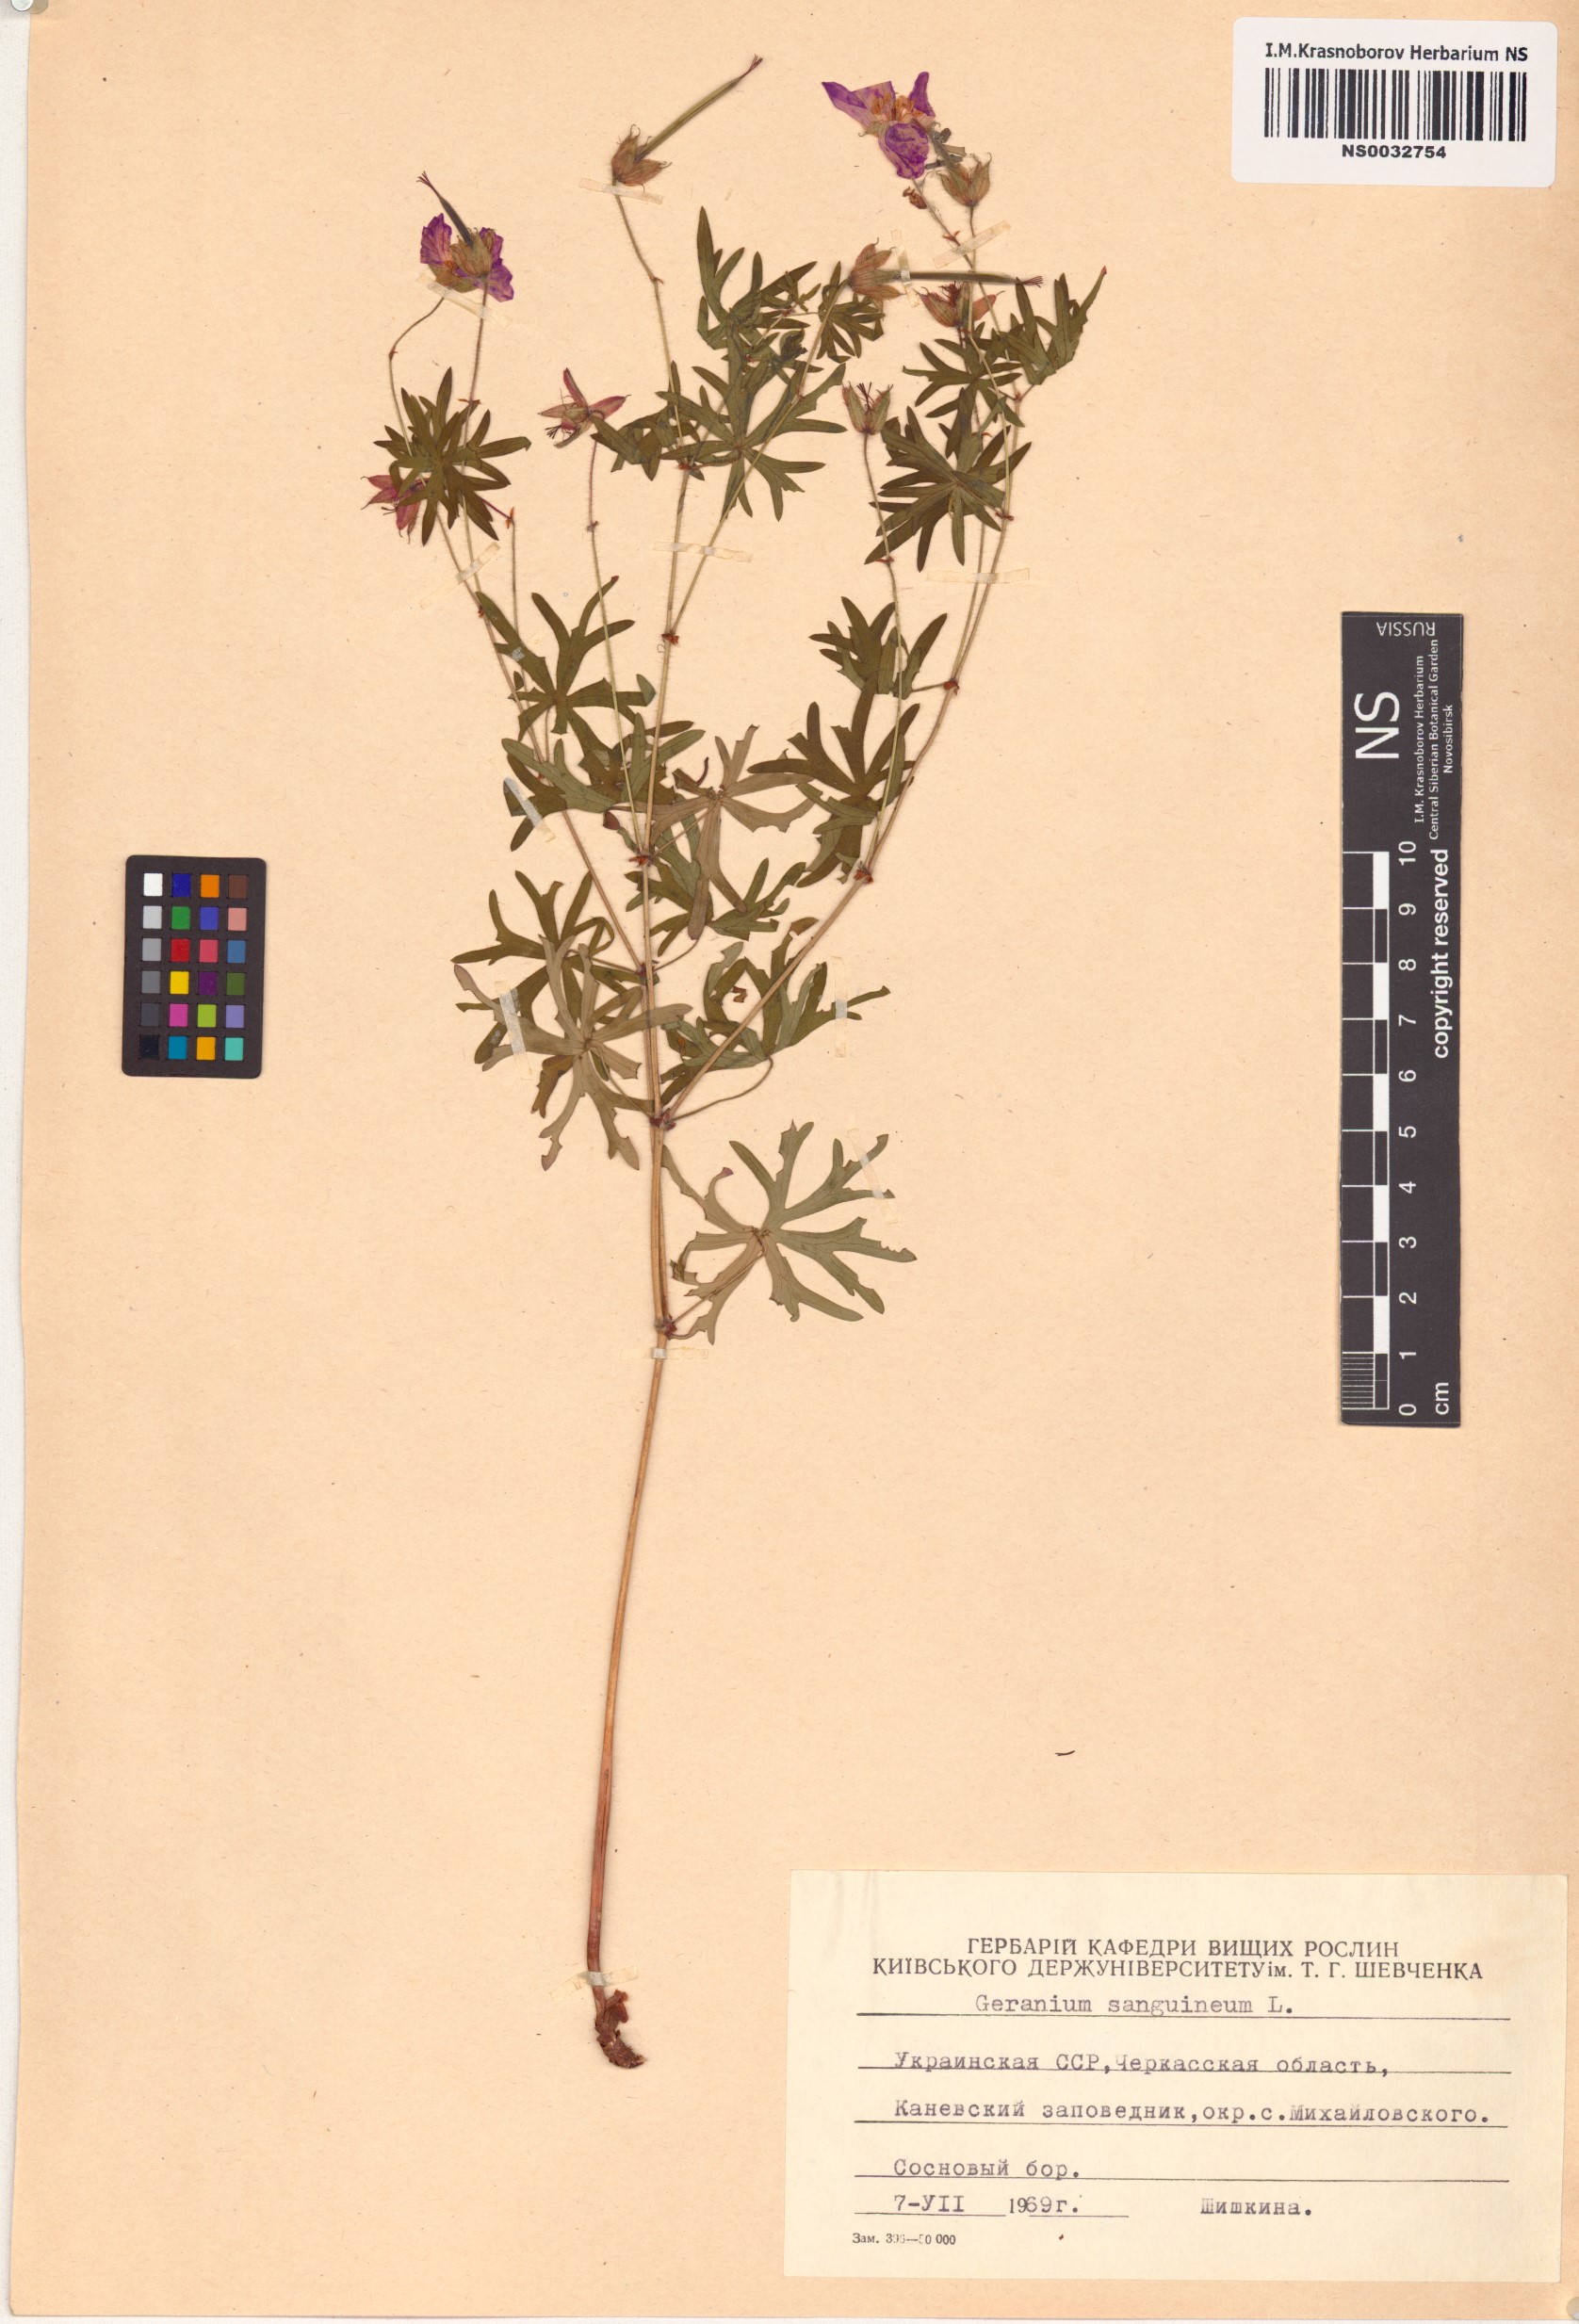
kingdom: Plantae
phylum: Tracheophyta
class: Magnoliopsida
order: Geraniales
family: Geraniaceae
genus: Geranium
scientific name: Geranium sanguineum
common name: Bloody crane's-bill
